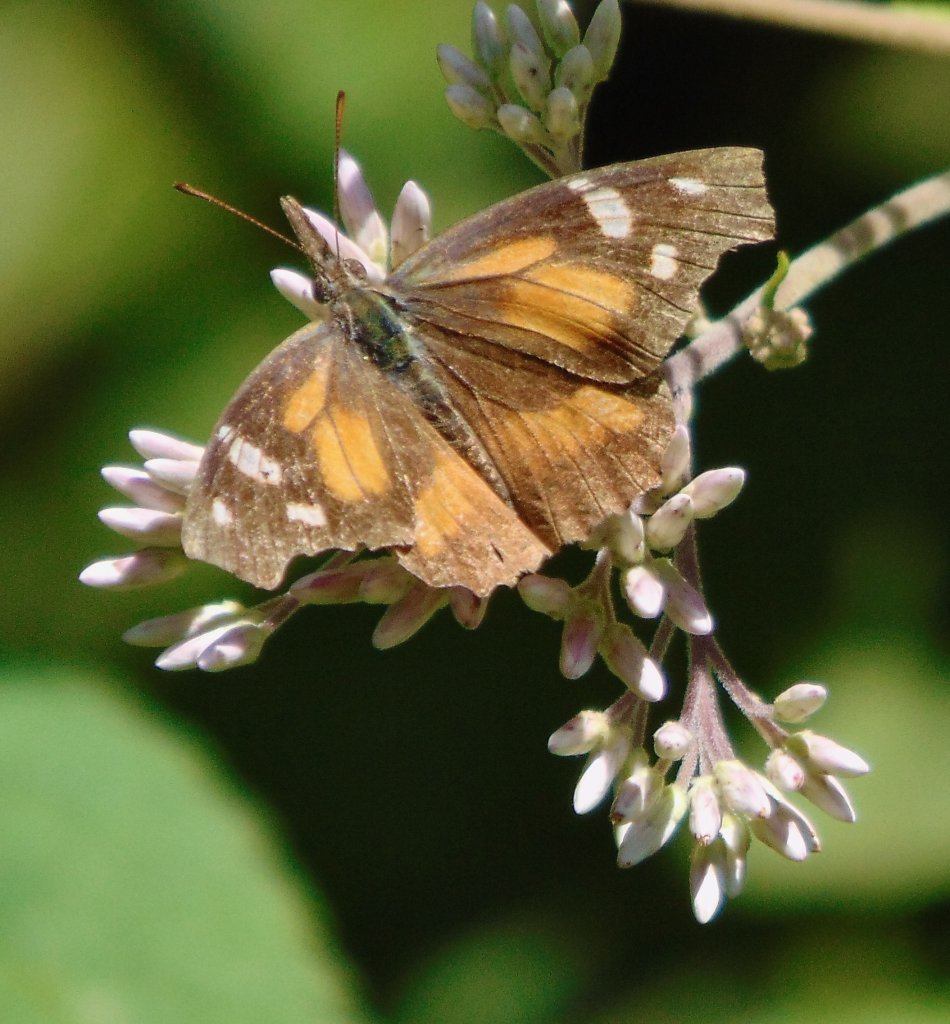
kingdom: Animalia
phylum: Arthropoda
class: Insecta
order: Lepidoptera
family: Nymphalidae
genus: Libytheana
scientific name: Libytheana carinenta
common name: American Snout
